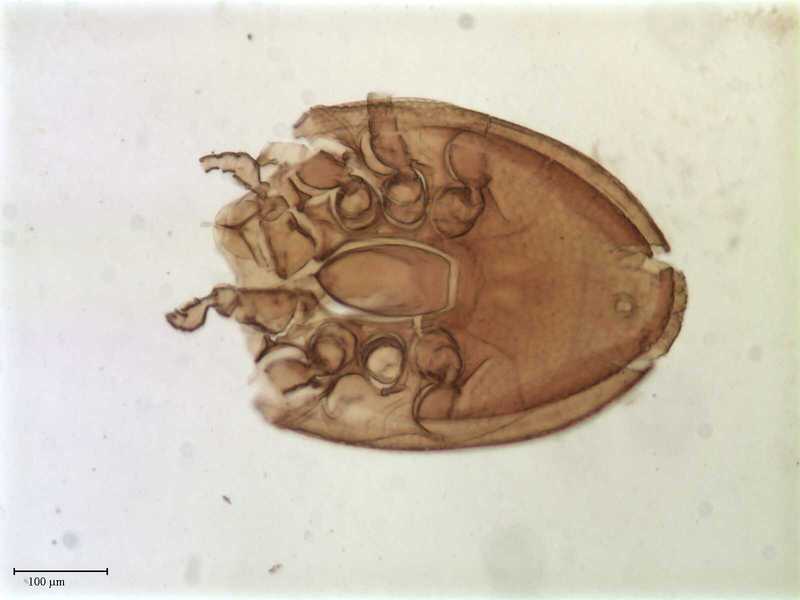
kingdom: Animalia
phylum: Arthropoda
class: Arachnida
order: Mesostigmata
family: Trematuridae
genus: Nenteria
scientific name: Nenteria
